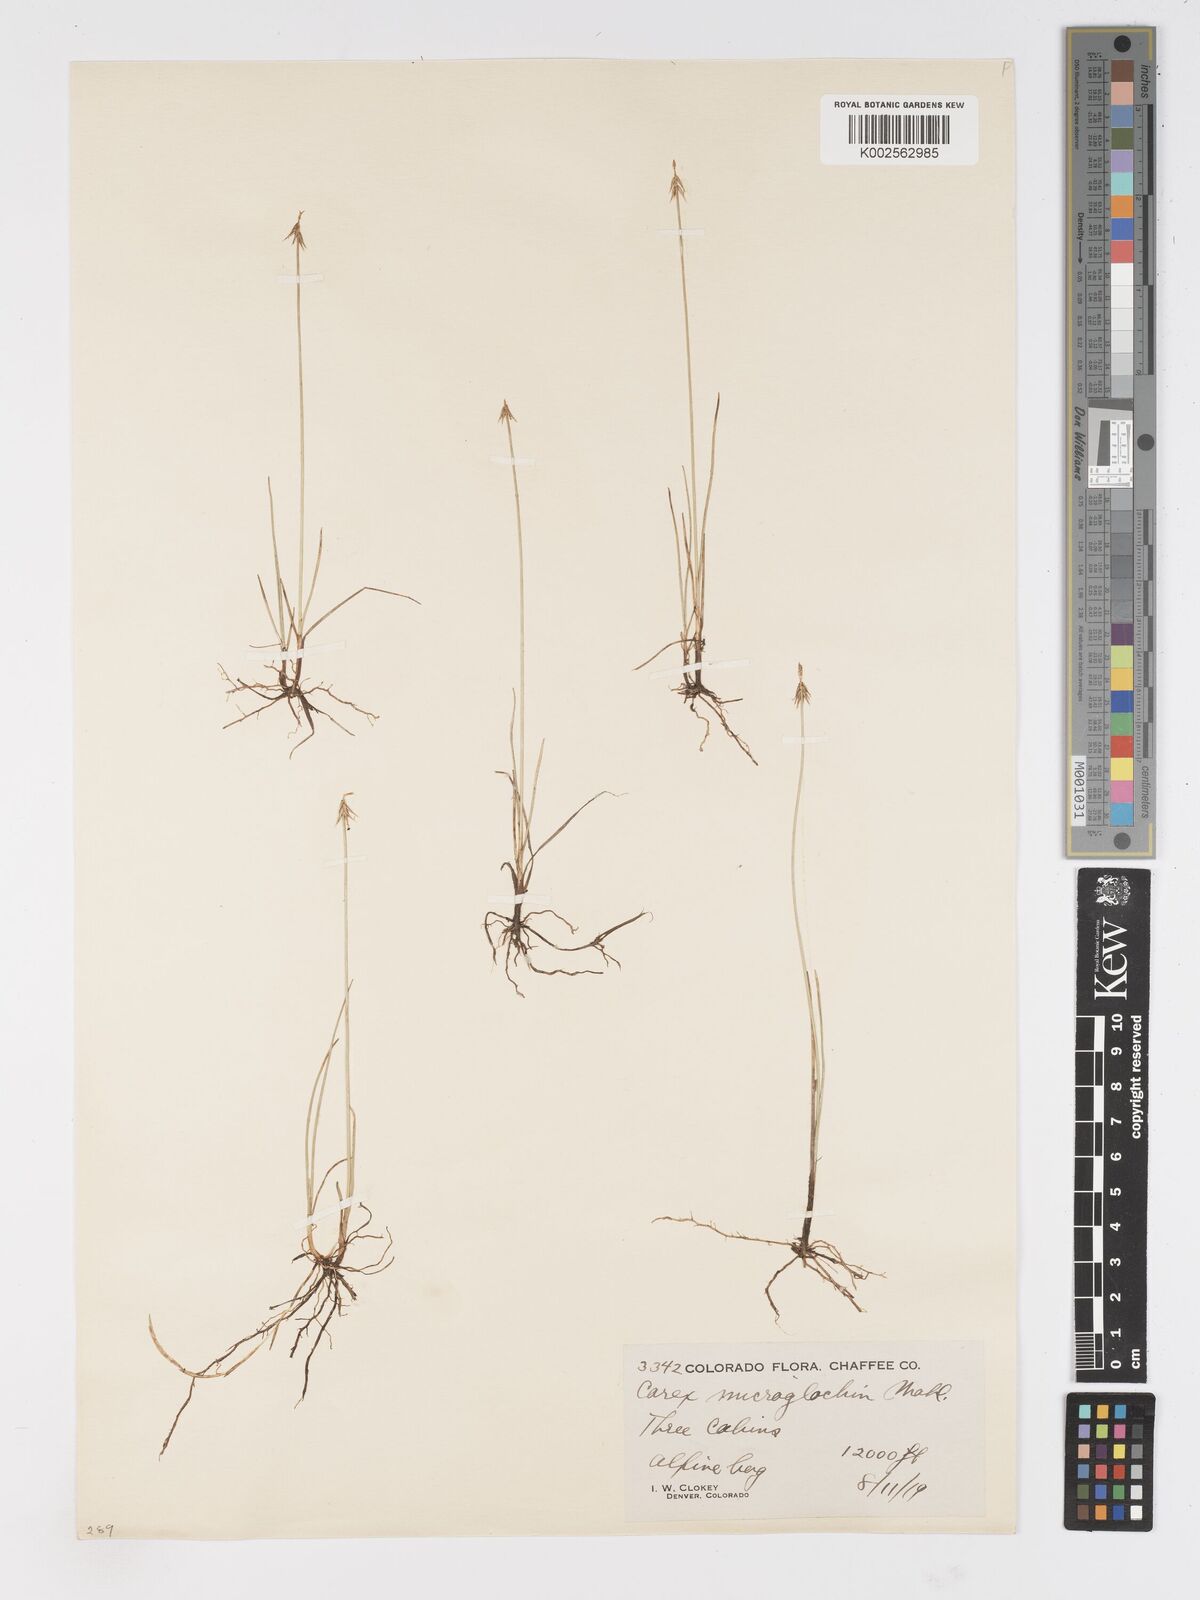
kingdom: Plantae
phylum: Tracheophyta
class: Liliopsida
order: Poales
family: Cyperaceae
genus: Carex
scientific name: Carex microglochin
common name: Bristle sedge
